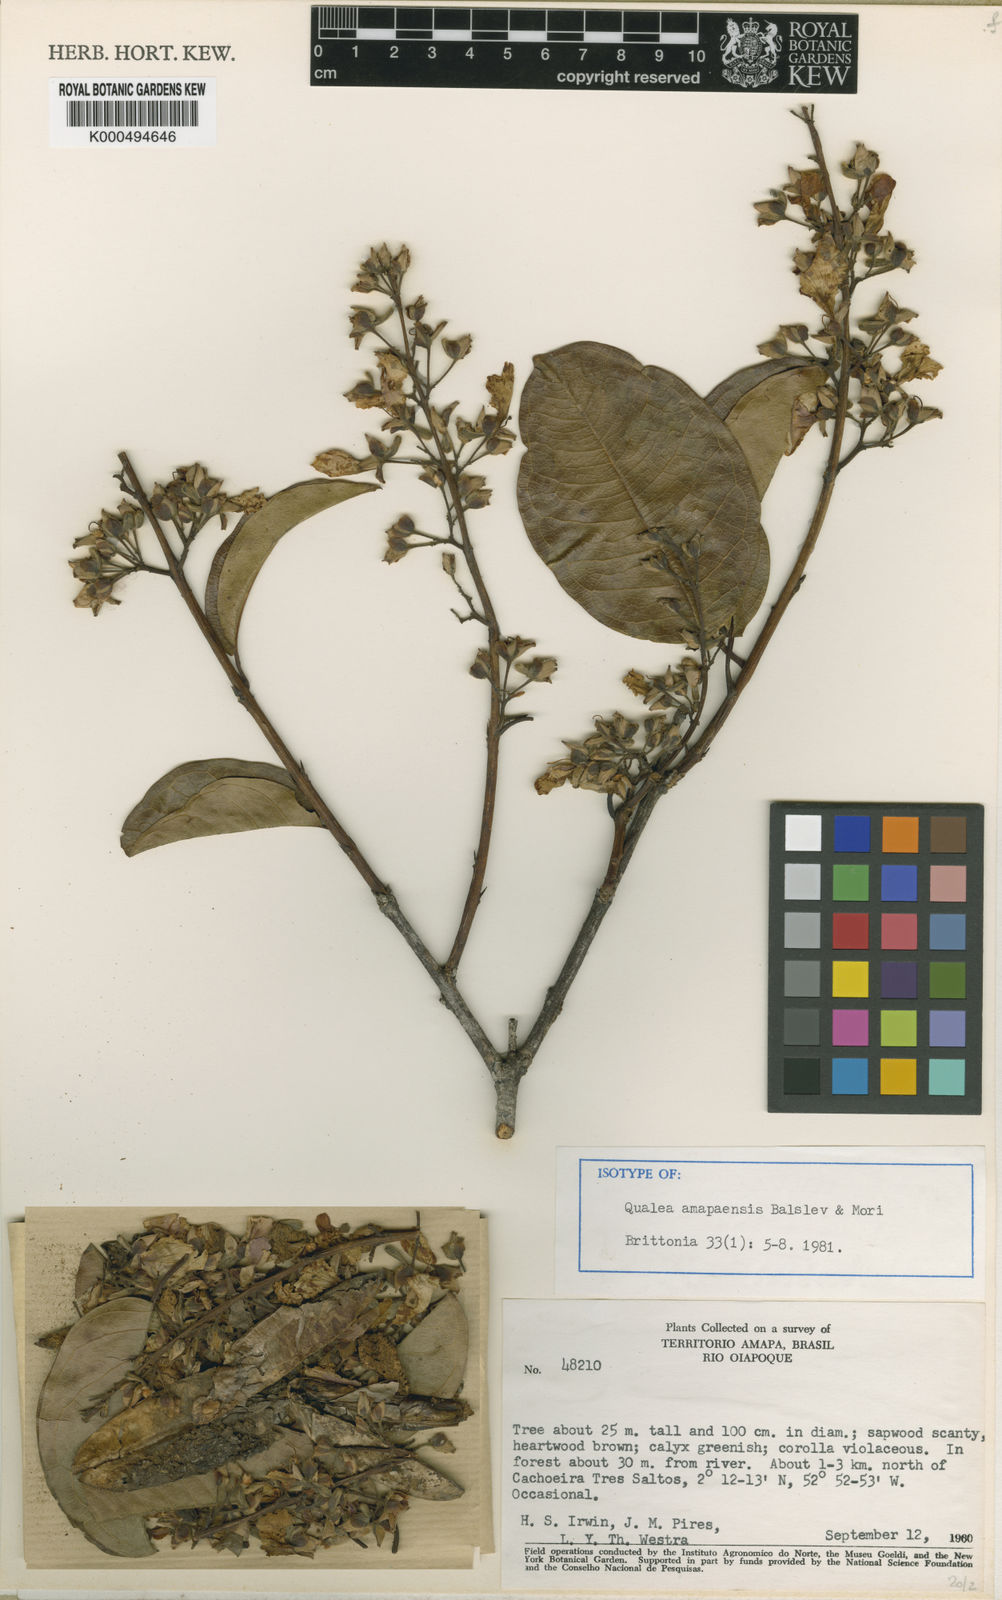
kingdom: Plantae
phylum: Tracheophyta
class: Magnoliopsida
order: Myrtales
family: Vochysiaceae
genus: Qualea
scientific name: Qualea amapaensis
